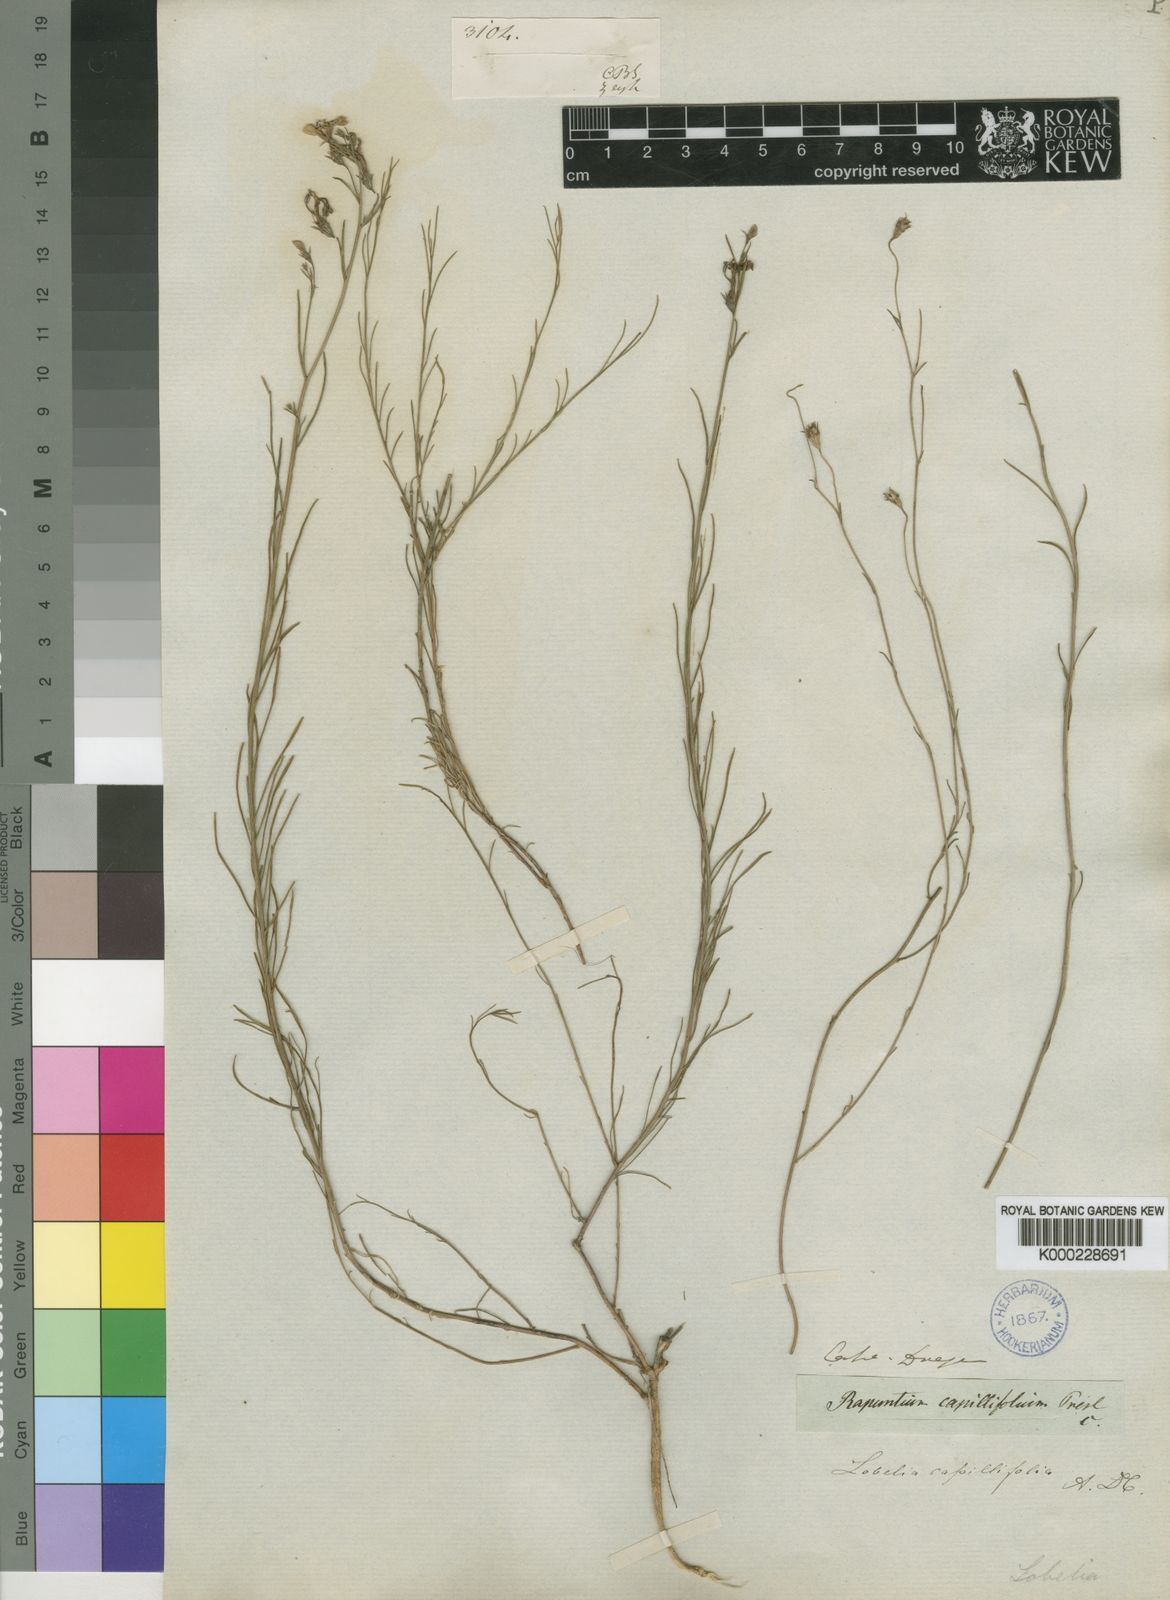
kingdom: Plantae
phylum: Tracheophyta
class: Magnoliopsida
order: Asterales
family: Campanulaceae
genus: Lobelia
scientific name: Lobelia capillifolia
